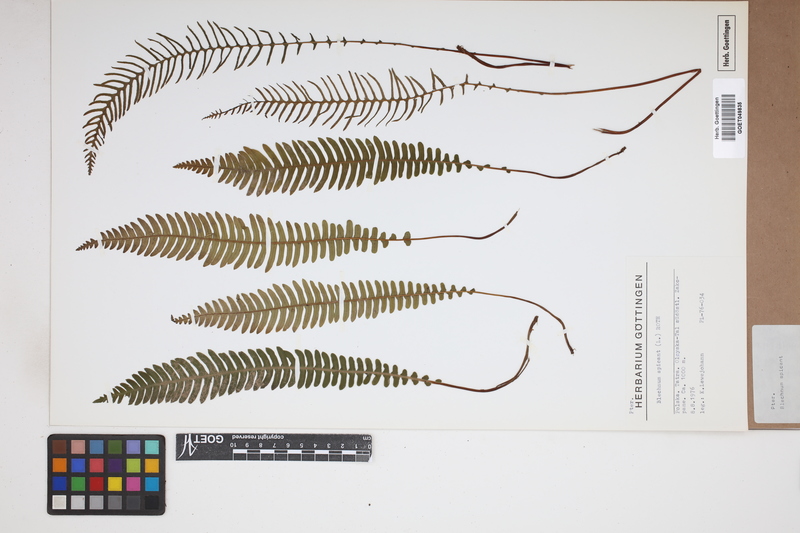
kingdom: Plantae
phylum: Tracheophyta
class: Polypodiopsida
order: Polypodiales
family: Blechnaceae
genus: Struthiopteris
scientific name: Struthiopteris spicant
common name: Deer fern
